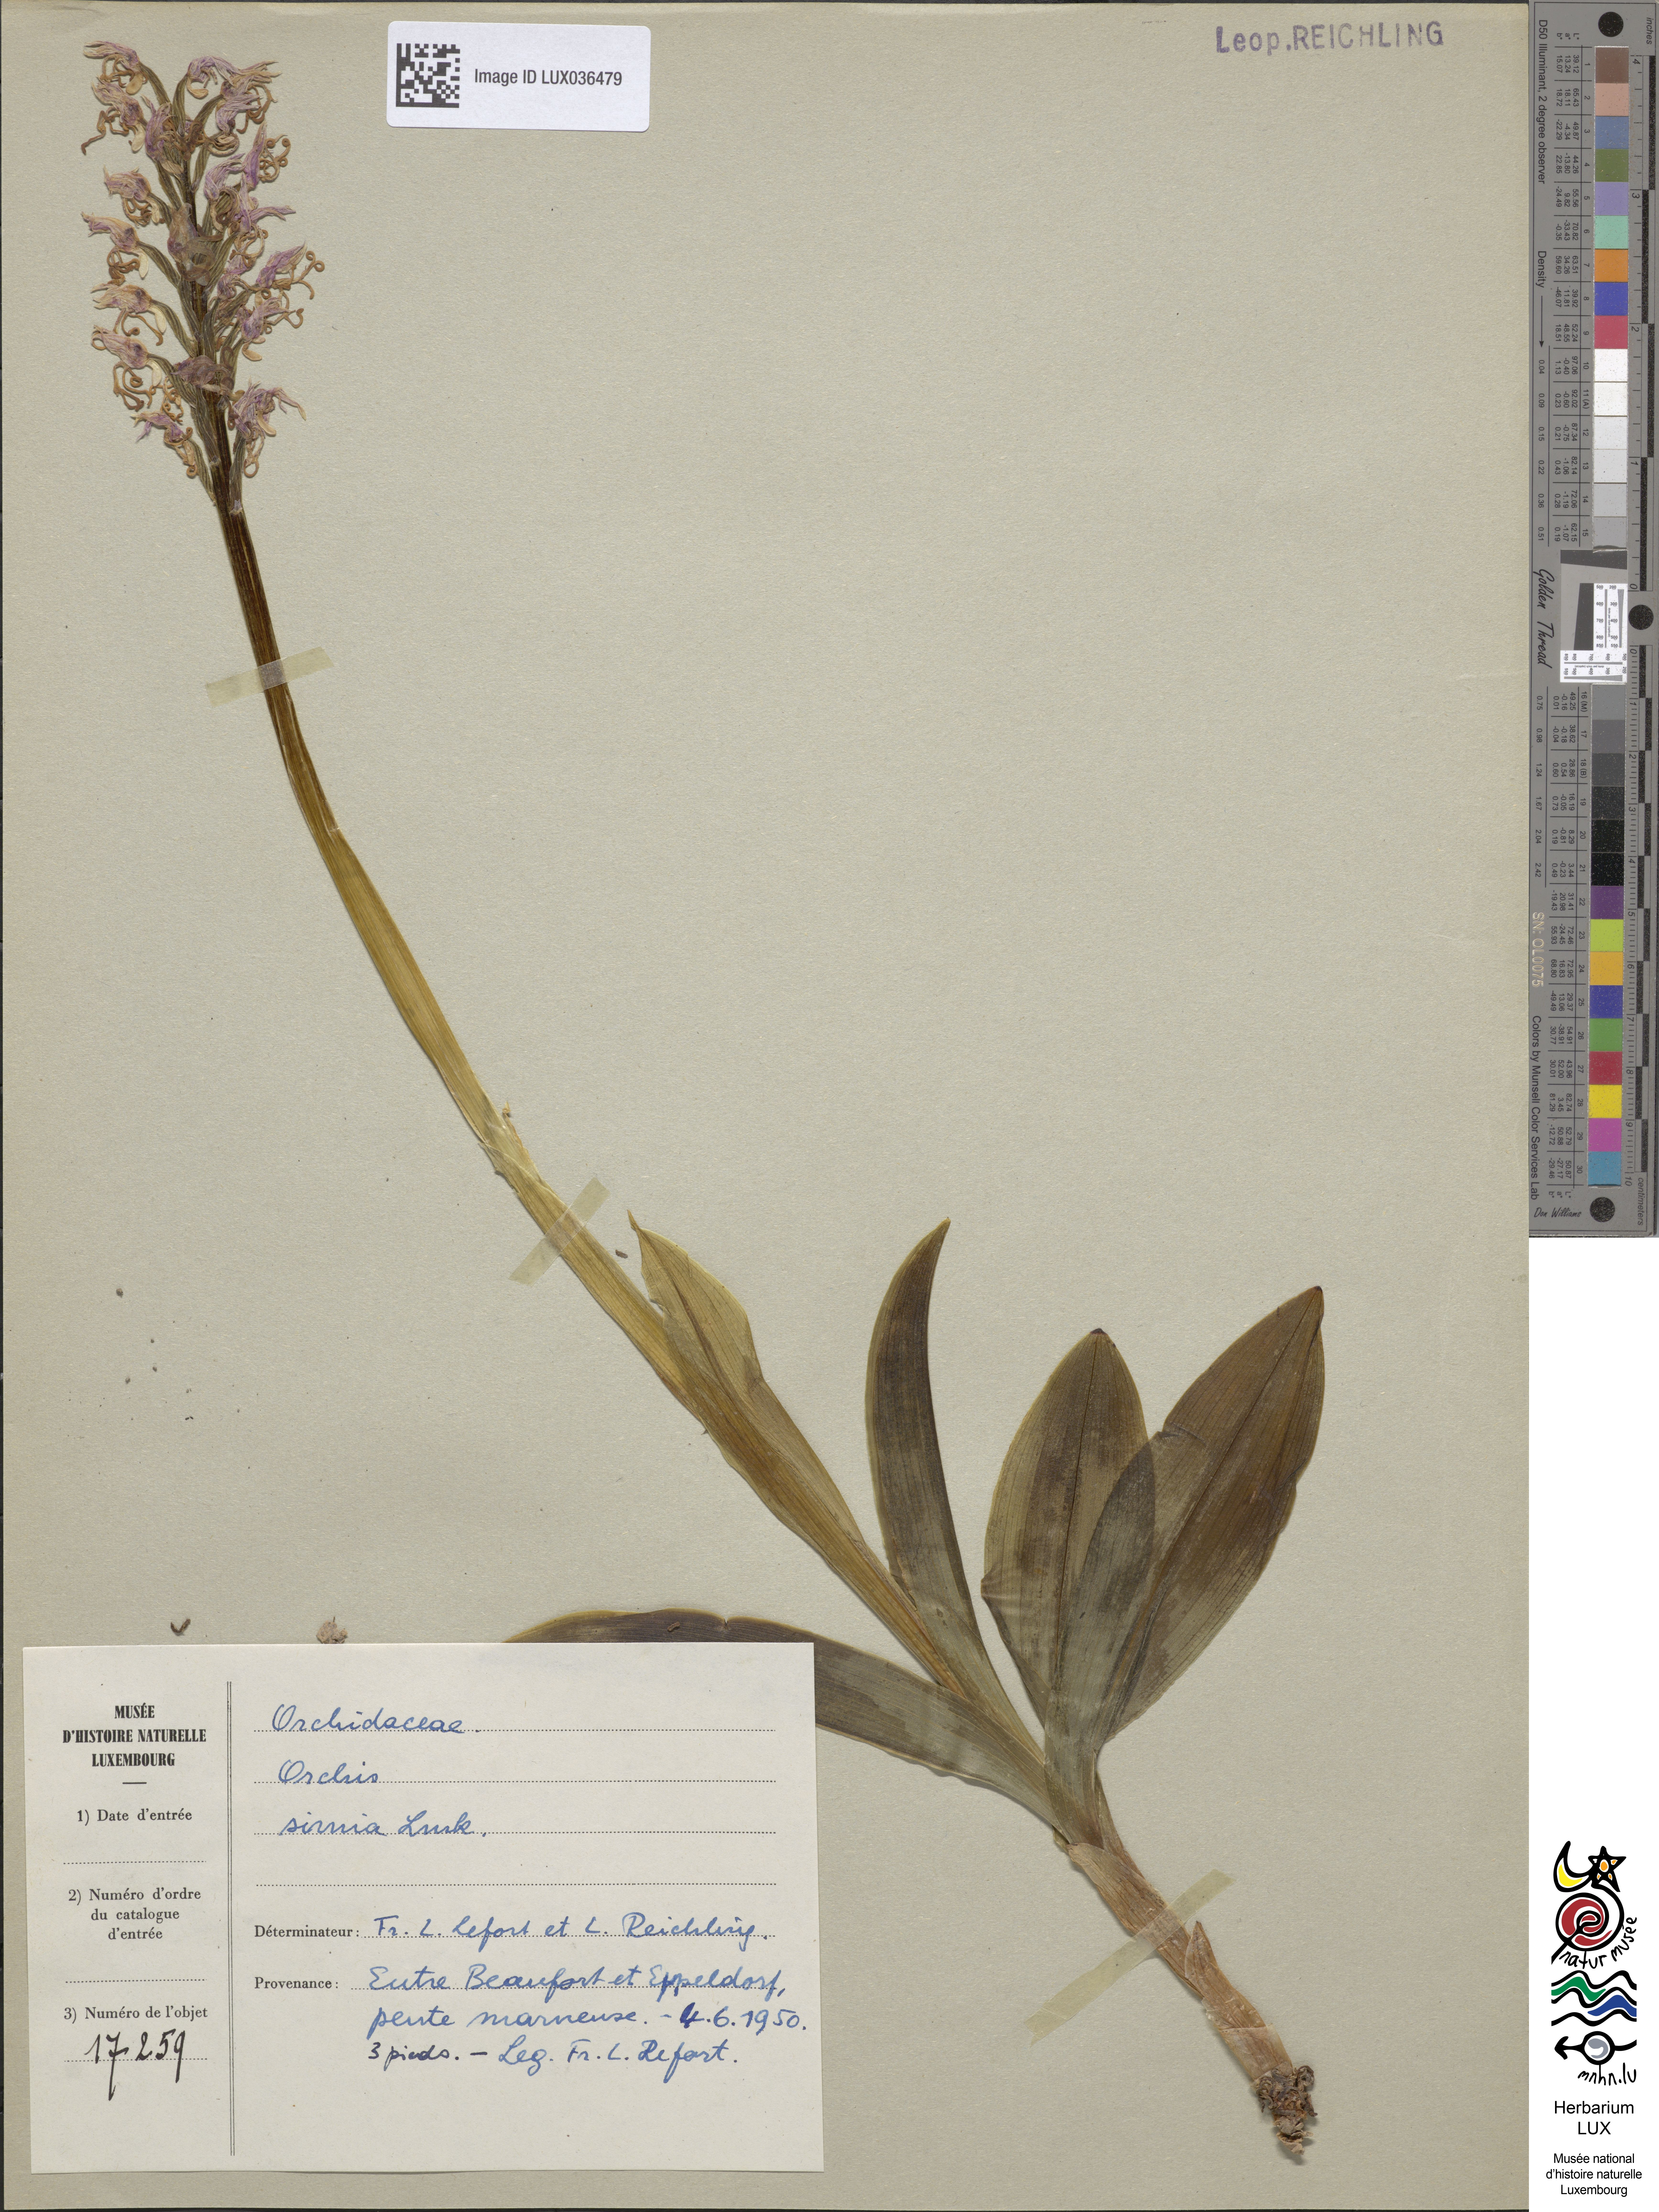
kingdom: Plantae
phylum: Tracheophyta
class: Liliopsida
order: Asparagales
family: Orchidaceae
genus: Orchis
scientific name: Orchis simia
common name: Monkey orchid
